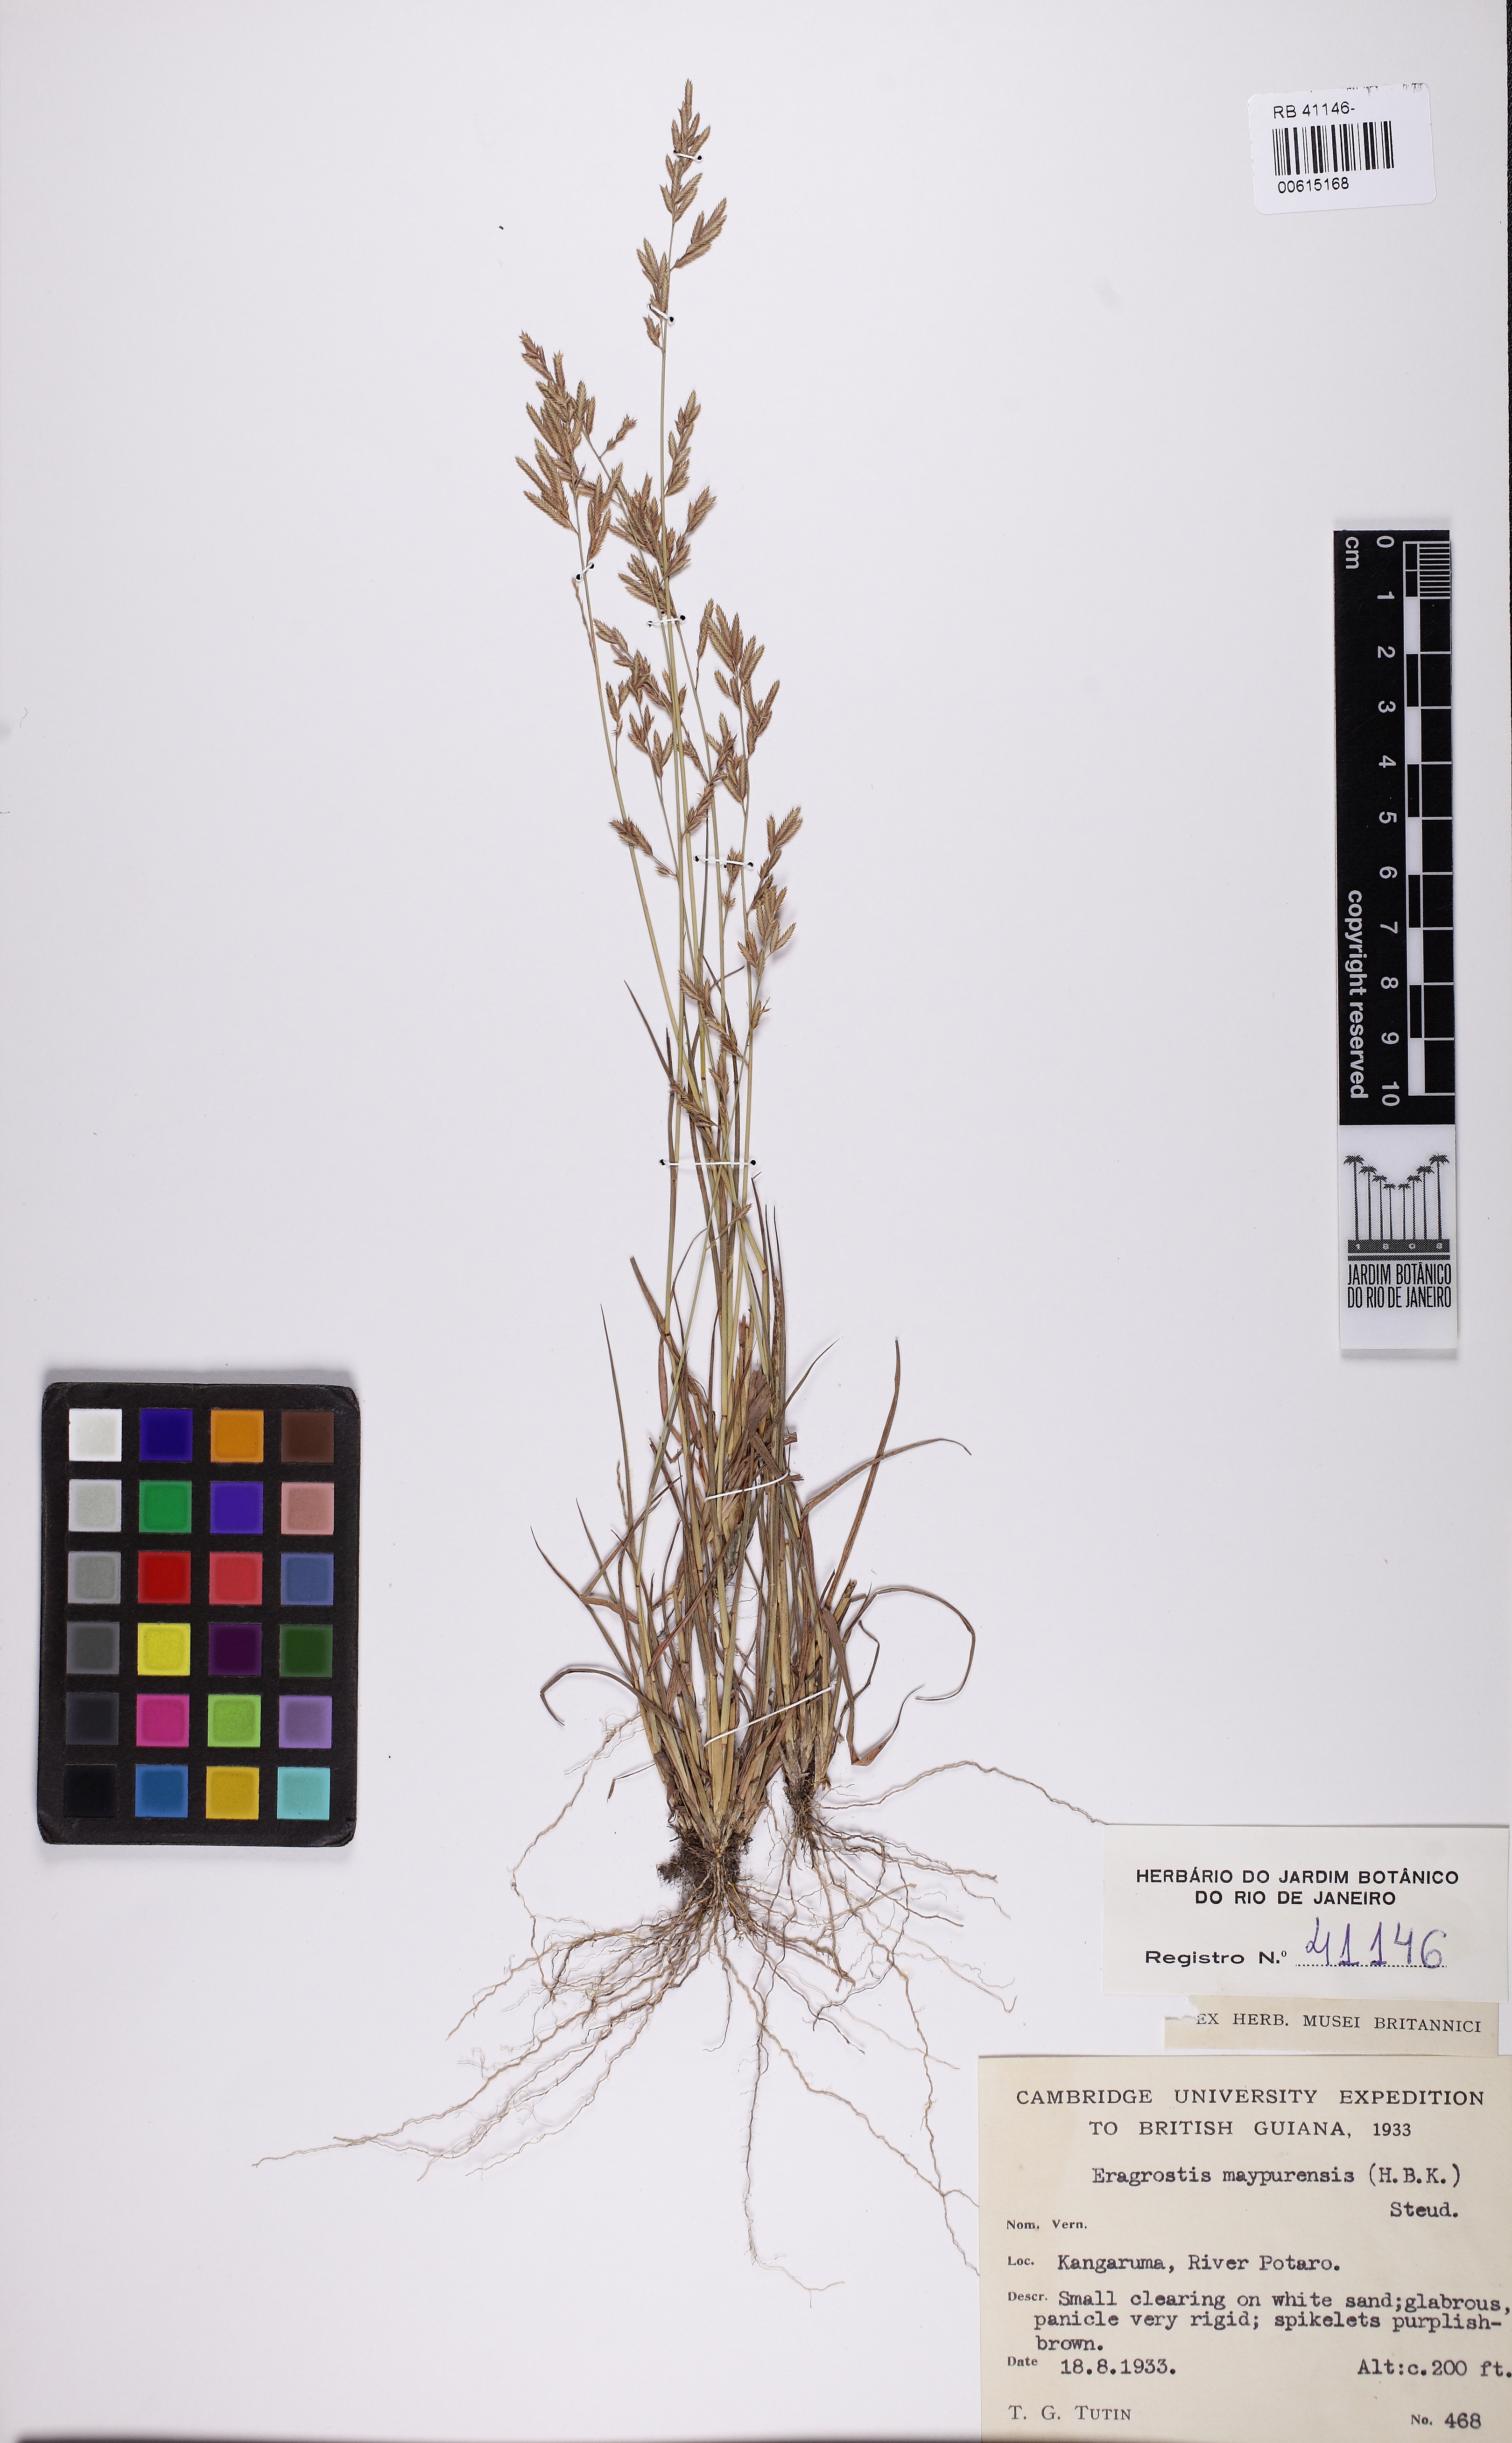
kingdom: Plantae
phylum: Tracheophyta
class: Liliopsida
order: Poales
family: Poaceae
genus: Eragrostis
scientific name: Eragrostis maypurensis
